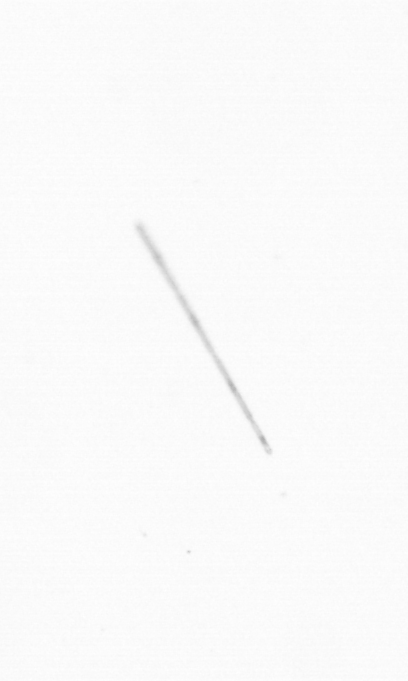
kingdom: Chromista
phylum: Ochrophyta
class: Bacillariophyceae
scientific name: Bacillariophyceae
